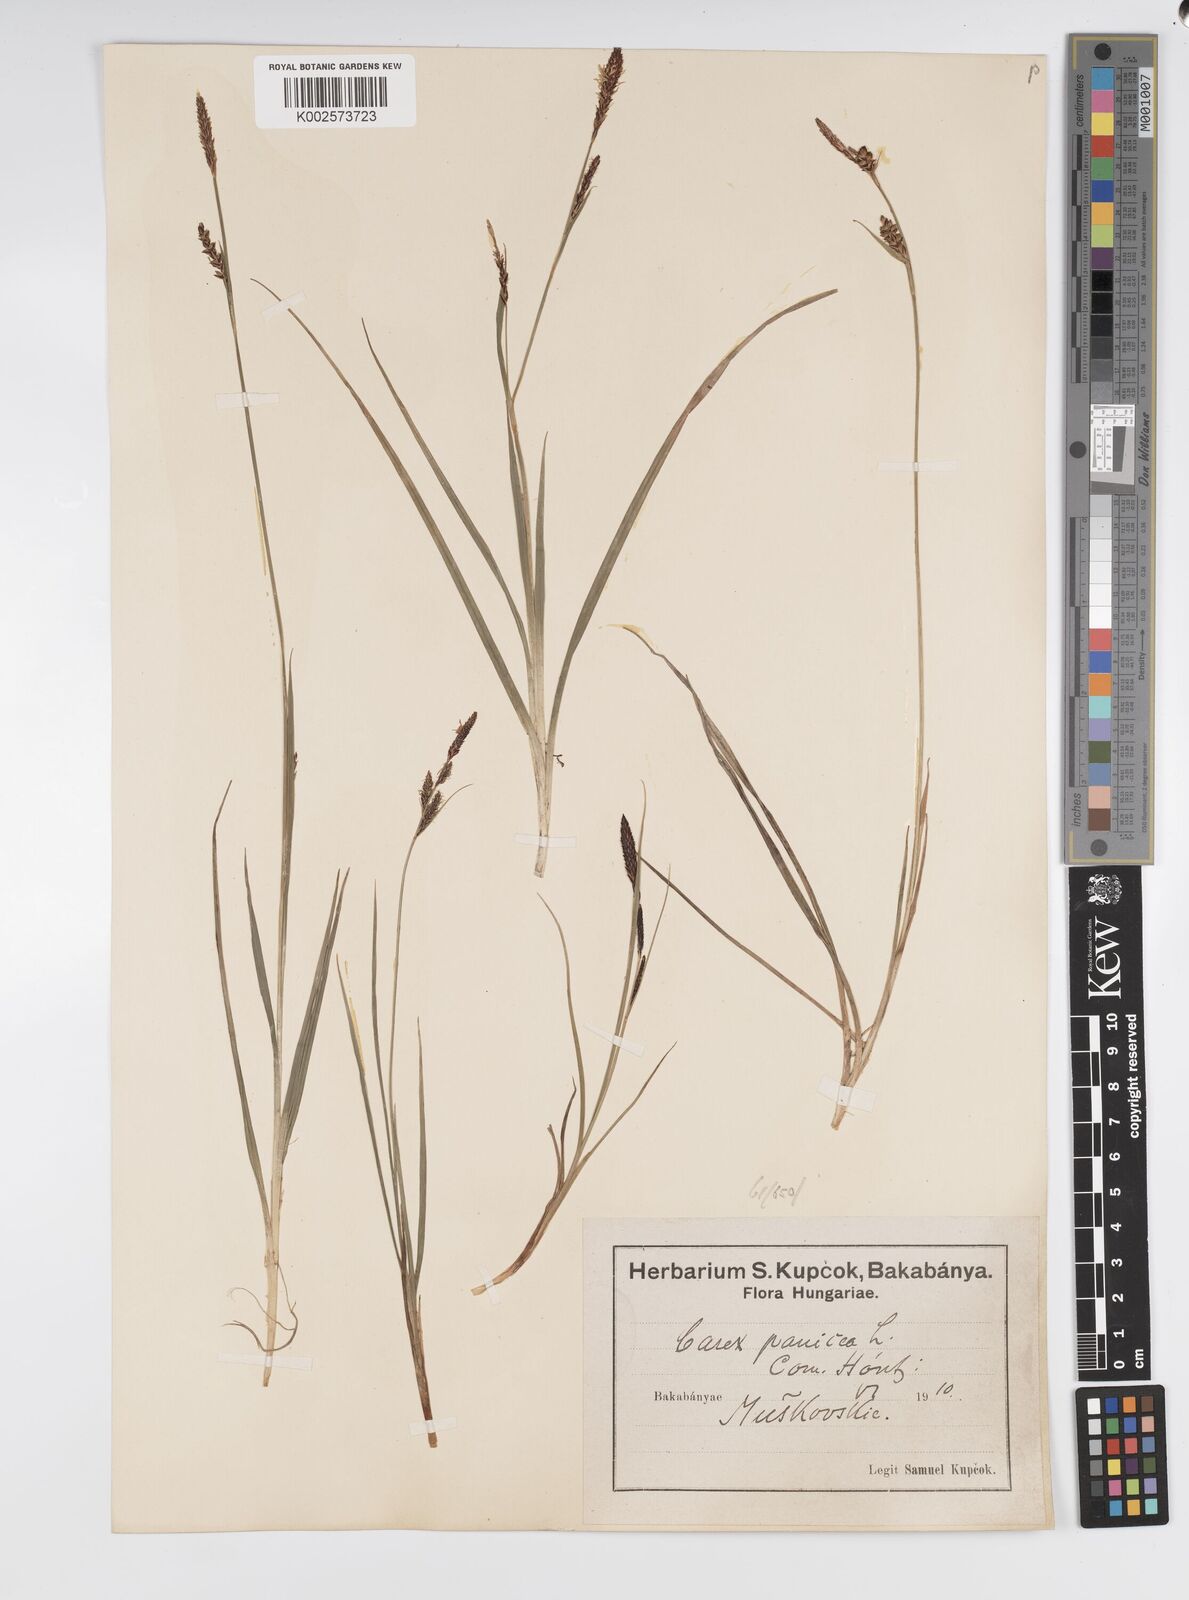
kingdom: Plantae
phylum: Tracheophyta
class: Liliopsida
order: Poales
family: Cyperaceae
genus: Carex
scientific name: Carex panicea
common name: Carnation sedge
